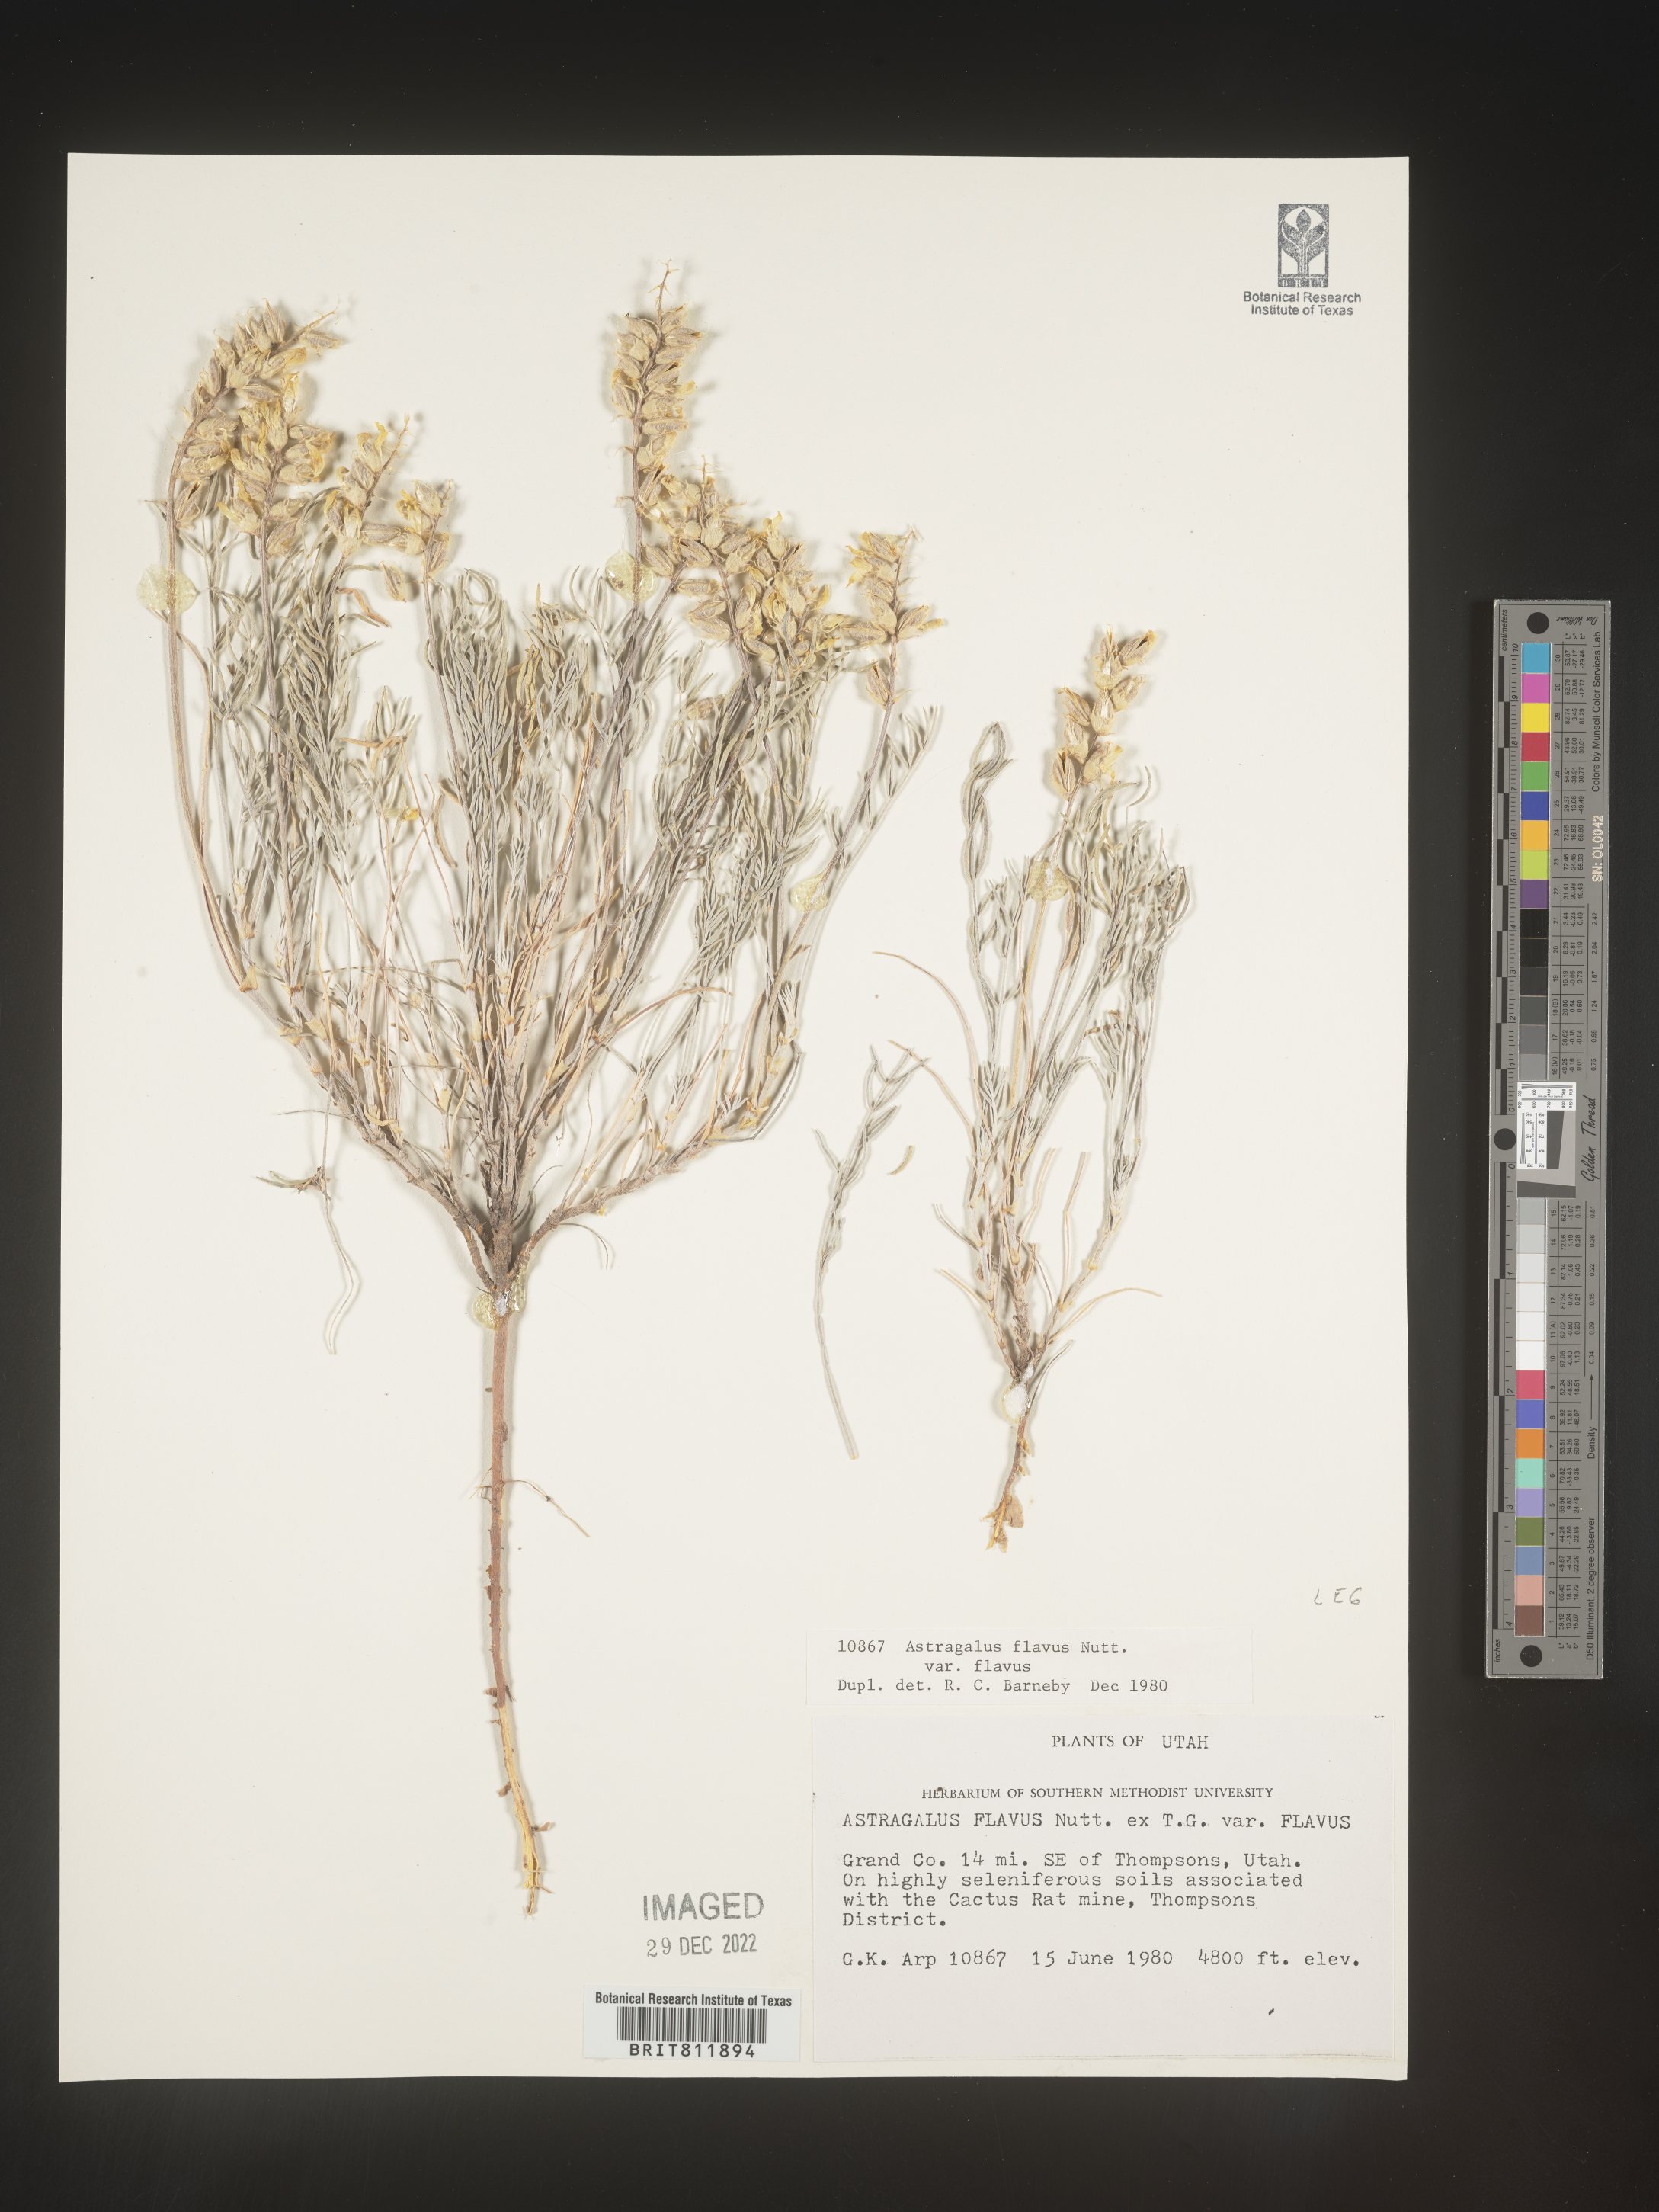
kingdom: Plantae
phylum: Tracheophyta
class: Magnoliopsida
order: Fabales
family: Fabaceae
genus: Astragalus
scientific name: Astragalus
